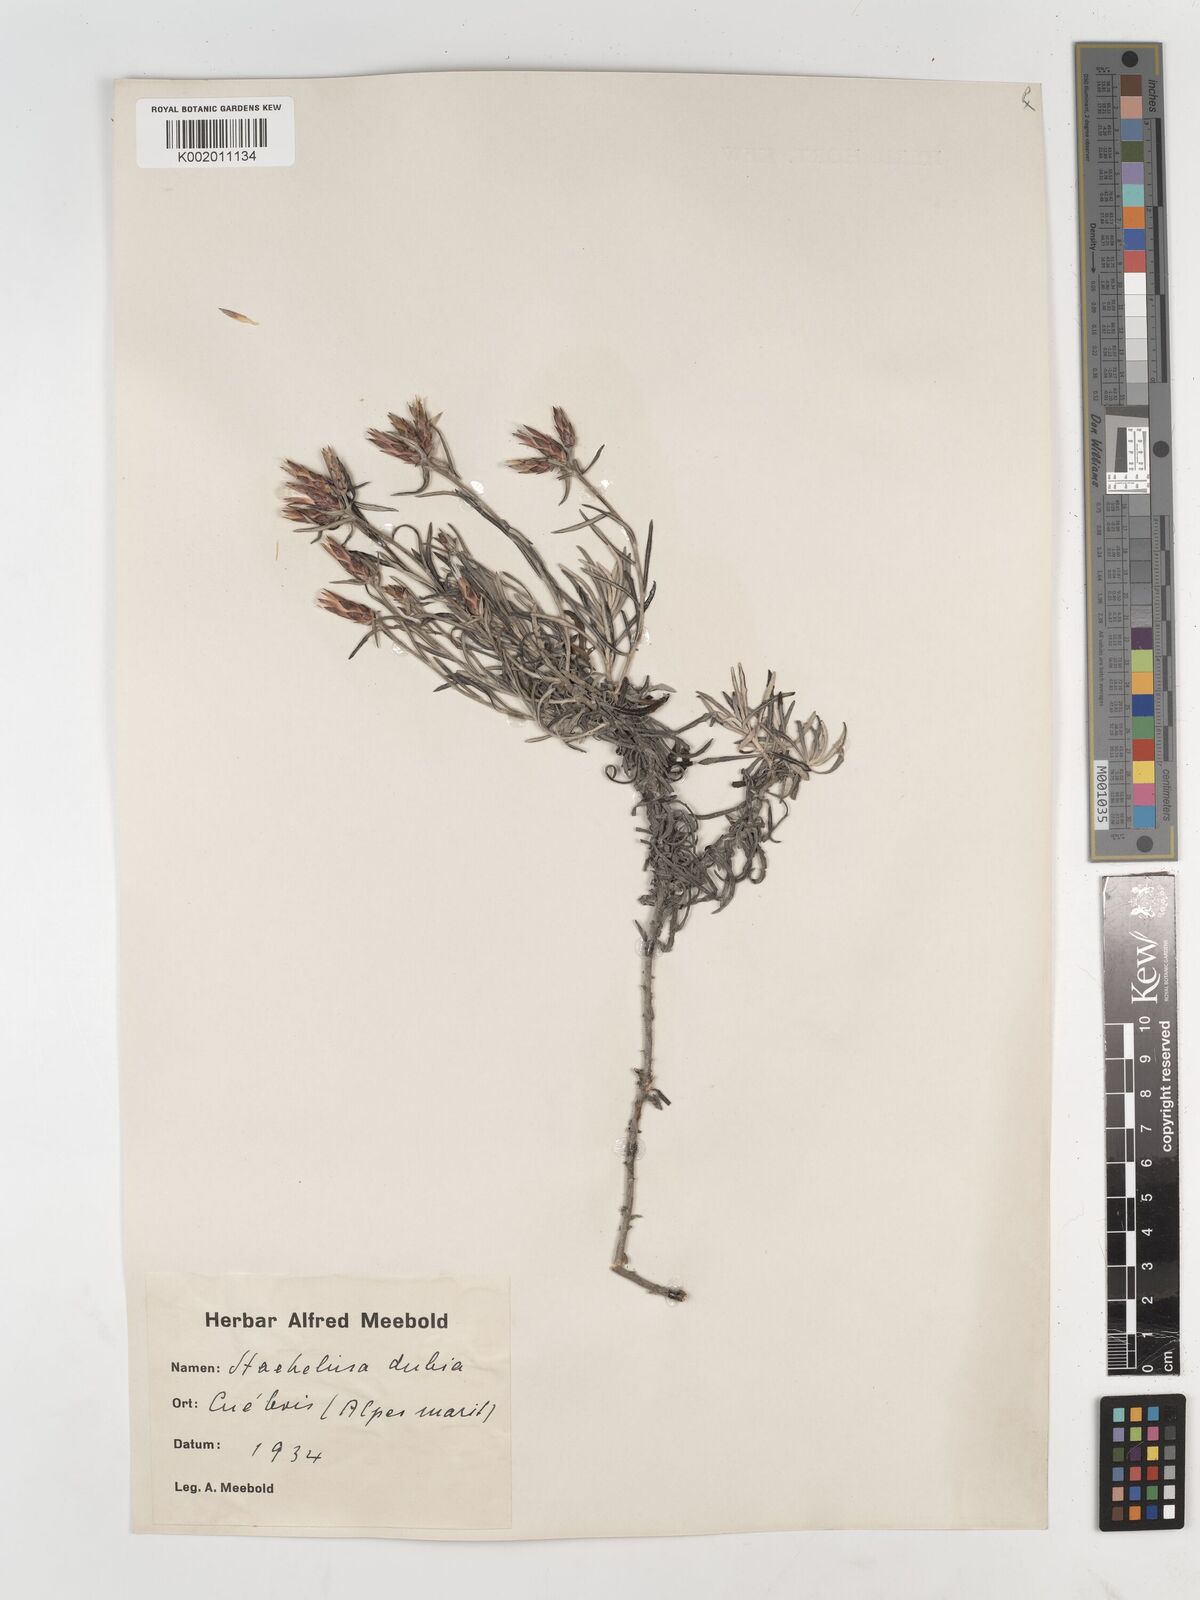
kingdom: Plantae
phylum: Tracheophyta
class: Magnoliopsida
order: Asterales
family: Asteraceae
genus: Staehelina
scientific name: Staehelina dubia
